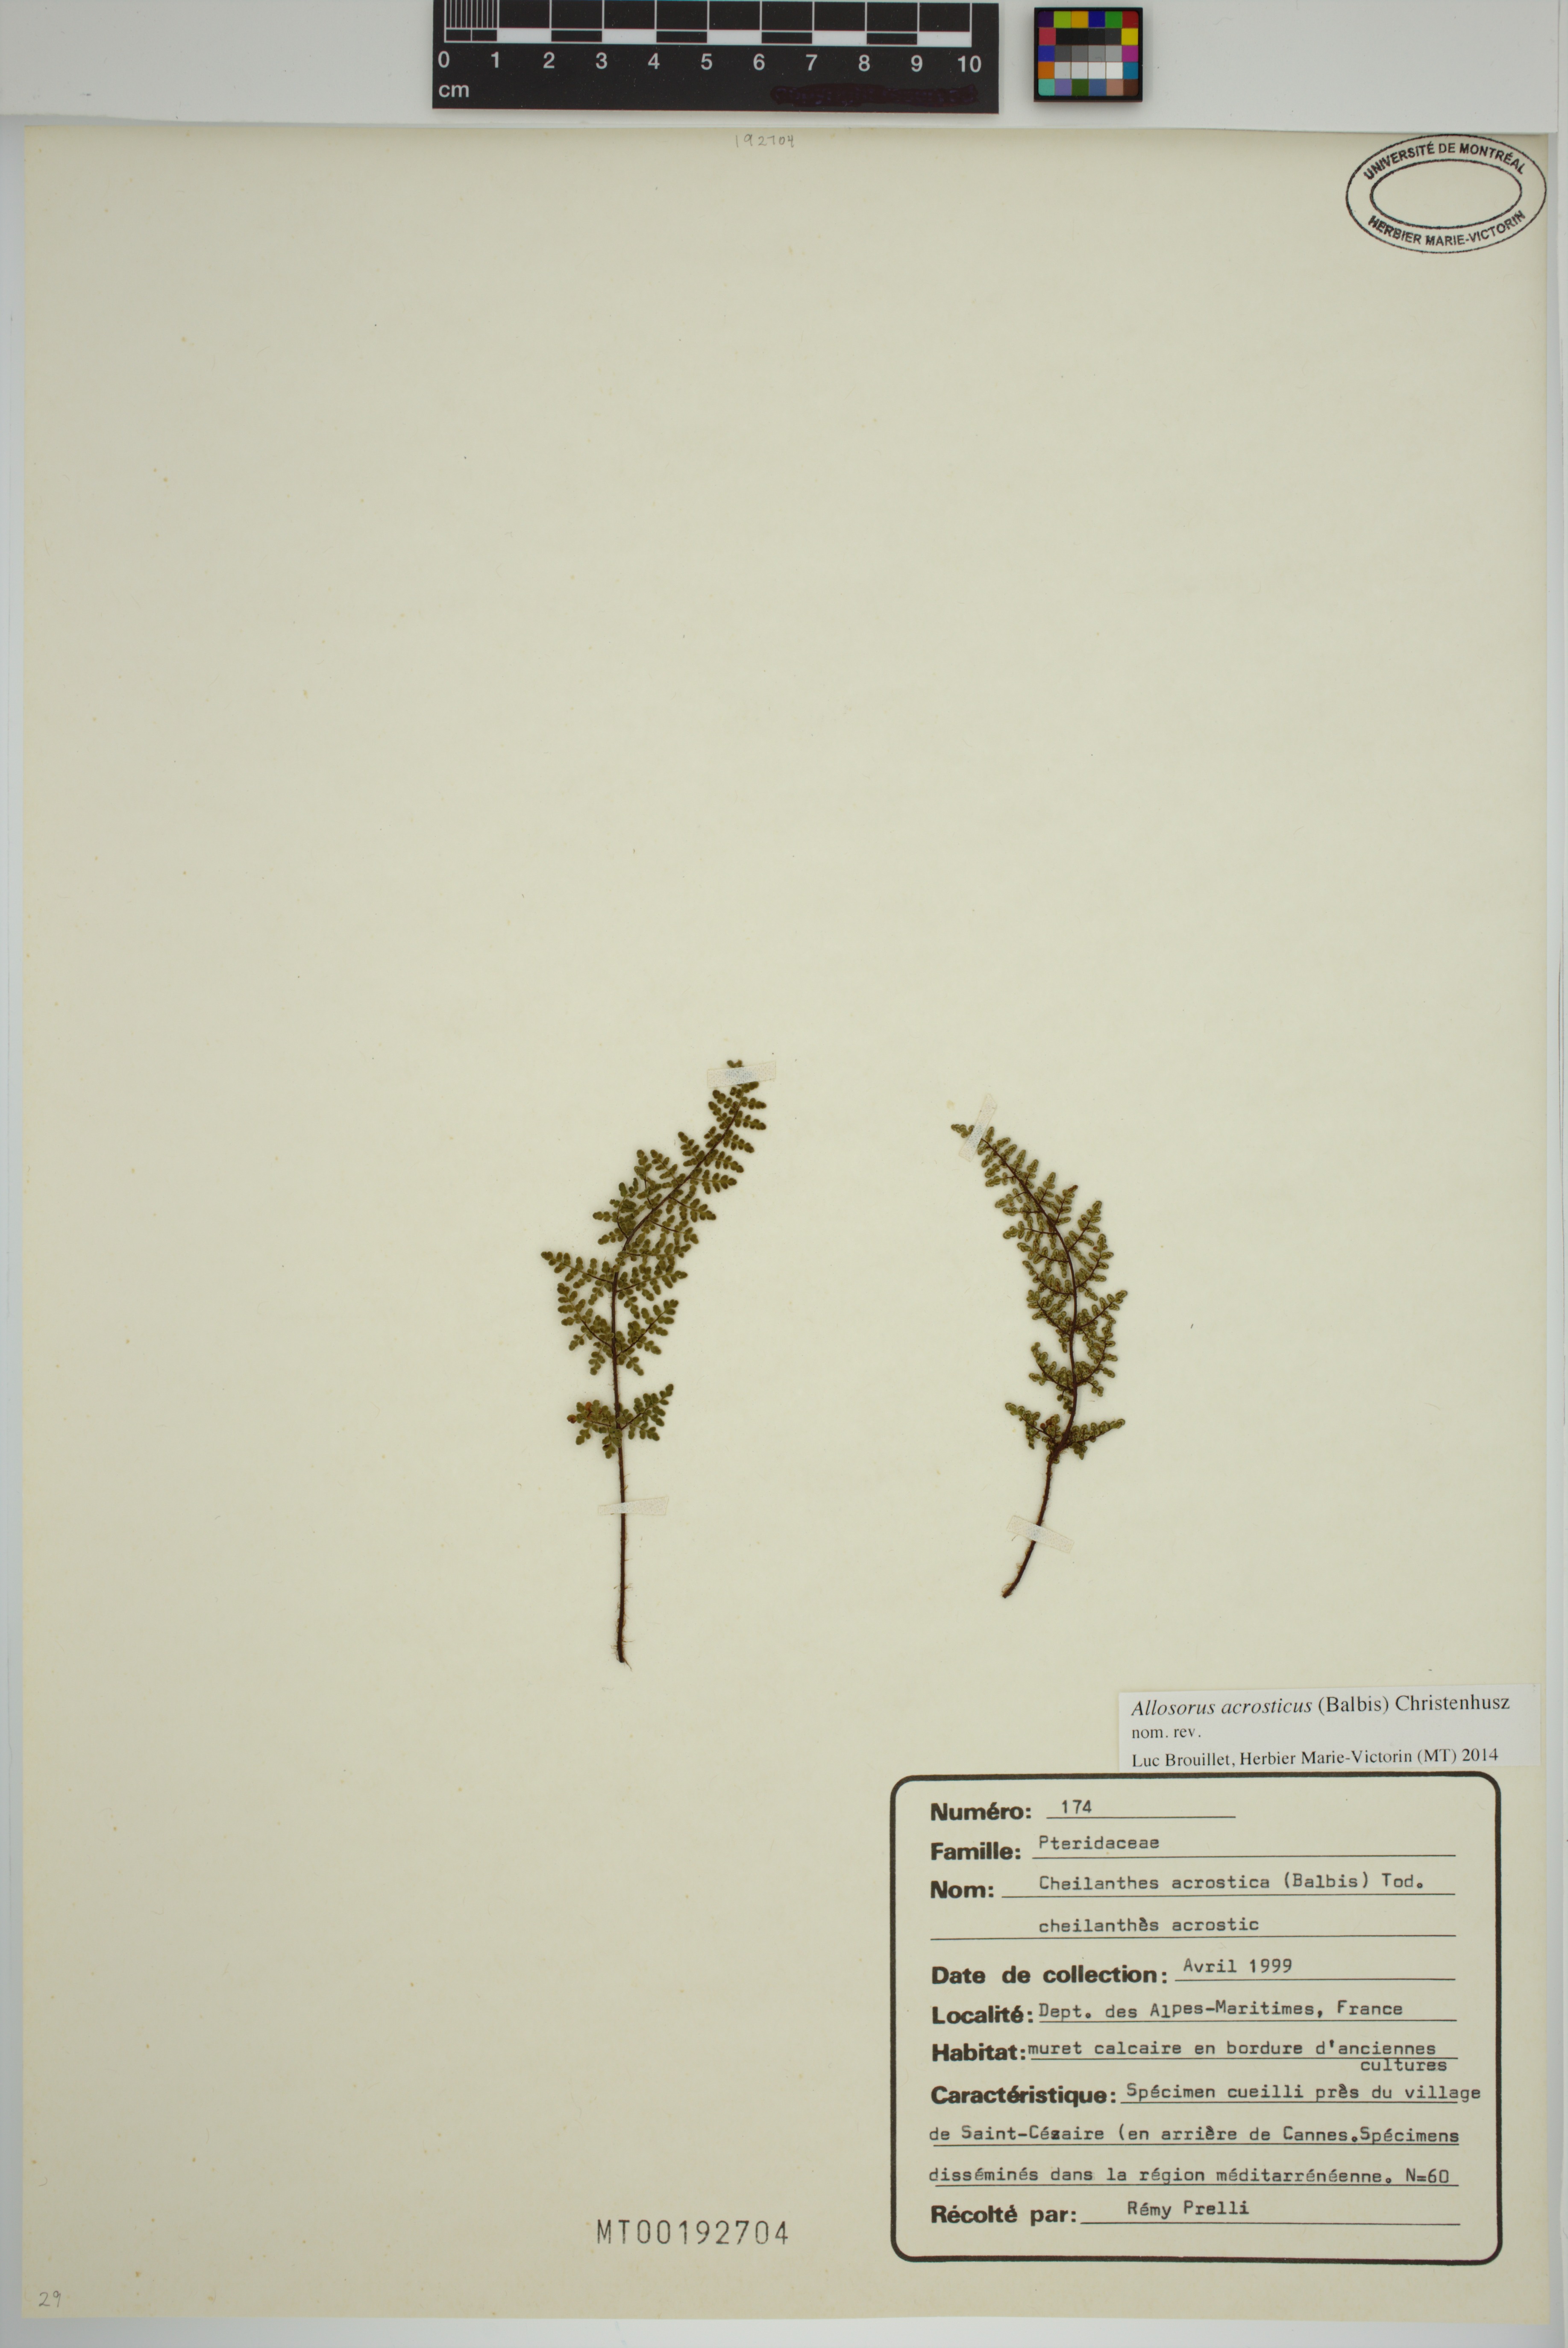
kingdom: Plantae
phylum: Tracheophyta
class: Polypodiopsida
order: Polypodiales
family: Pteridaceae
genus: Oeosporangium
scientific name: Oeosporangium pteridioides
